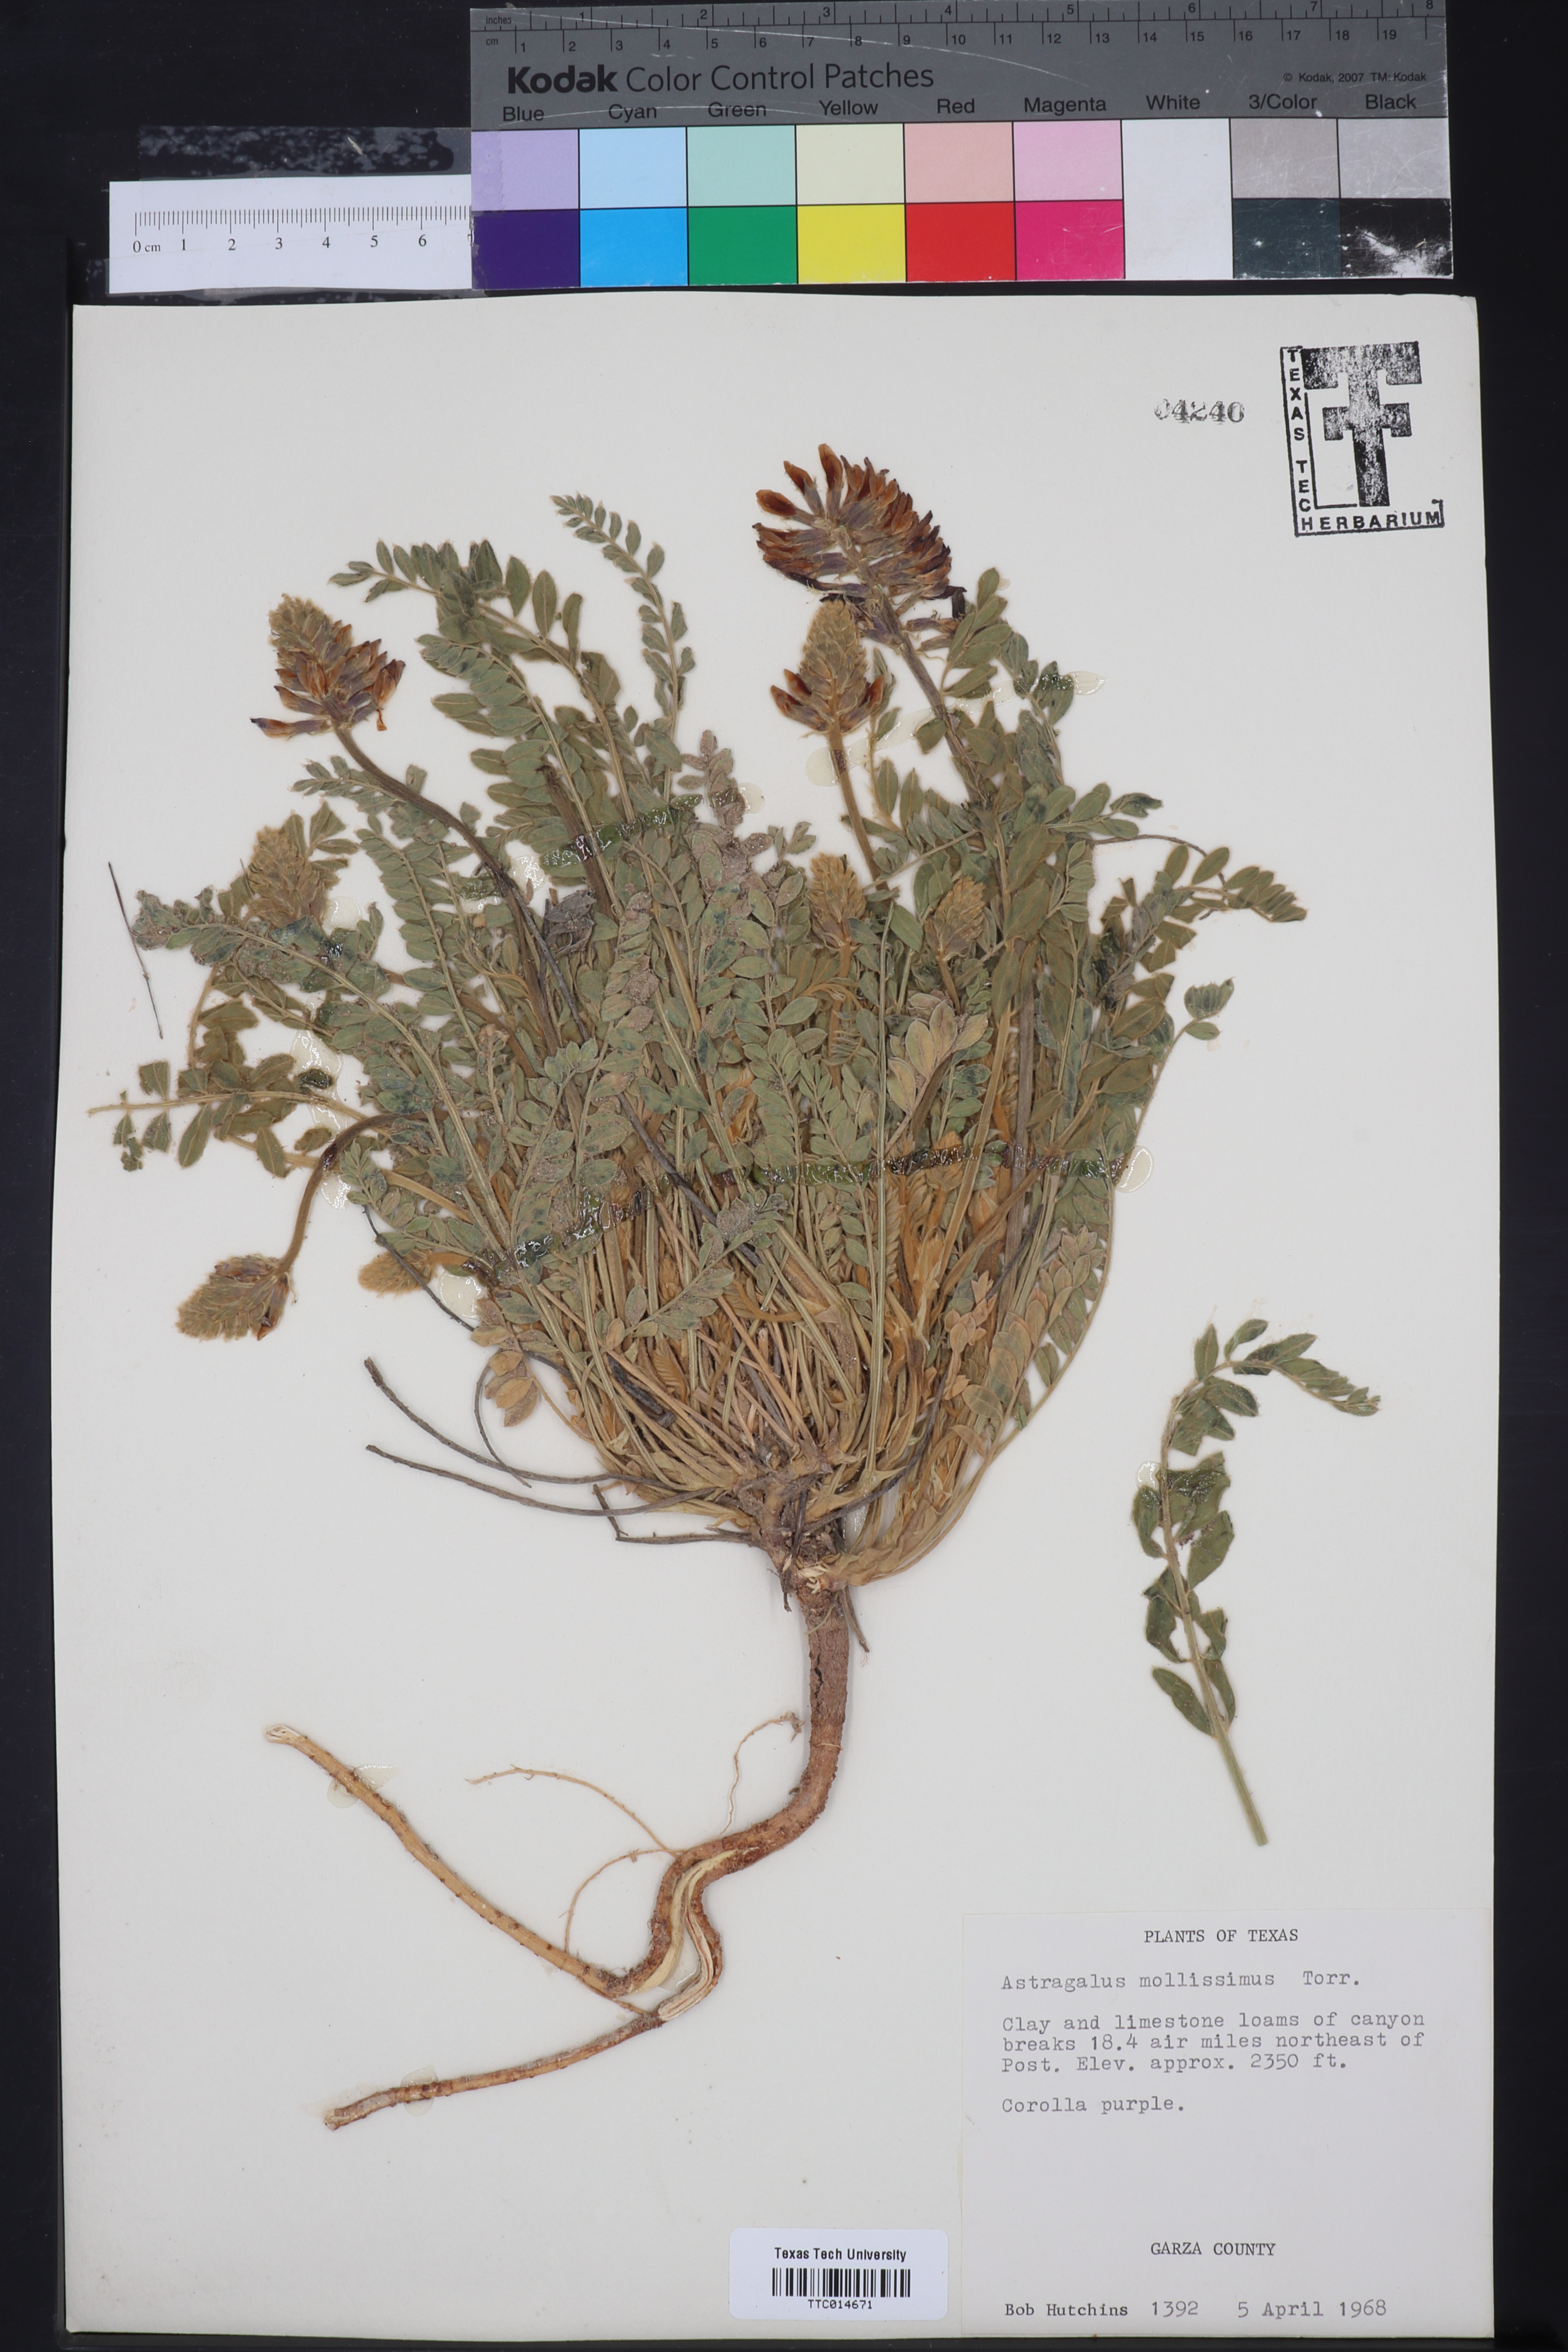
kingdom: Plantae
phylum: Tracheophyta
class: Magnoliopsida
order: Fabales
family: Fabaceae
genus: Astragalus
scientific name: Astragalus mollissimus
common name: Woolly locoweed
